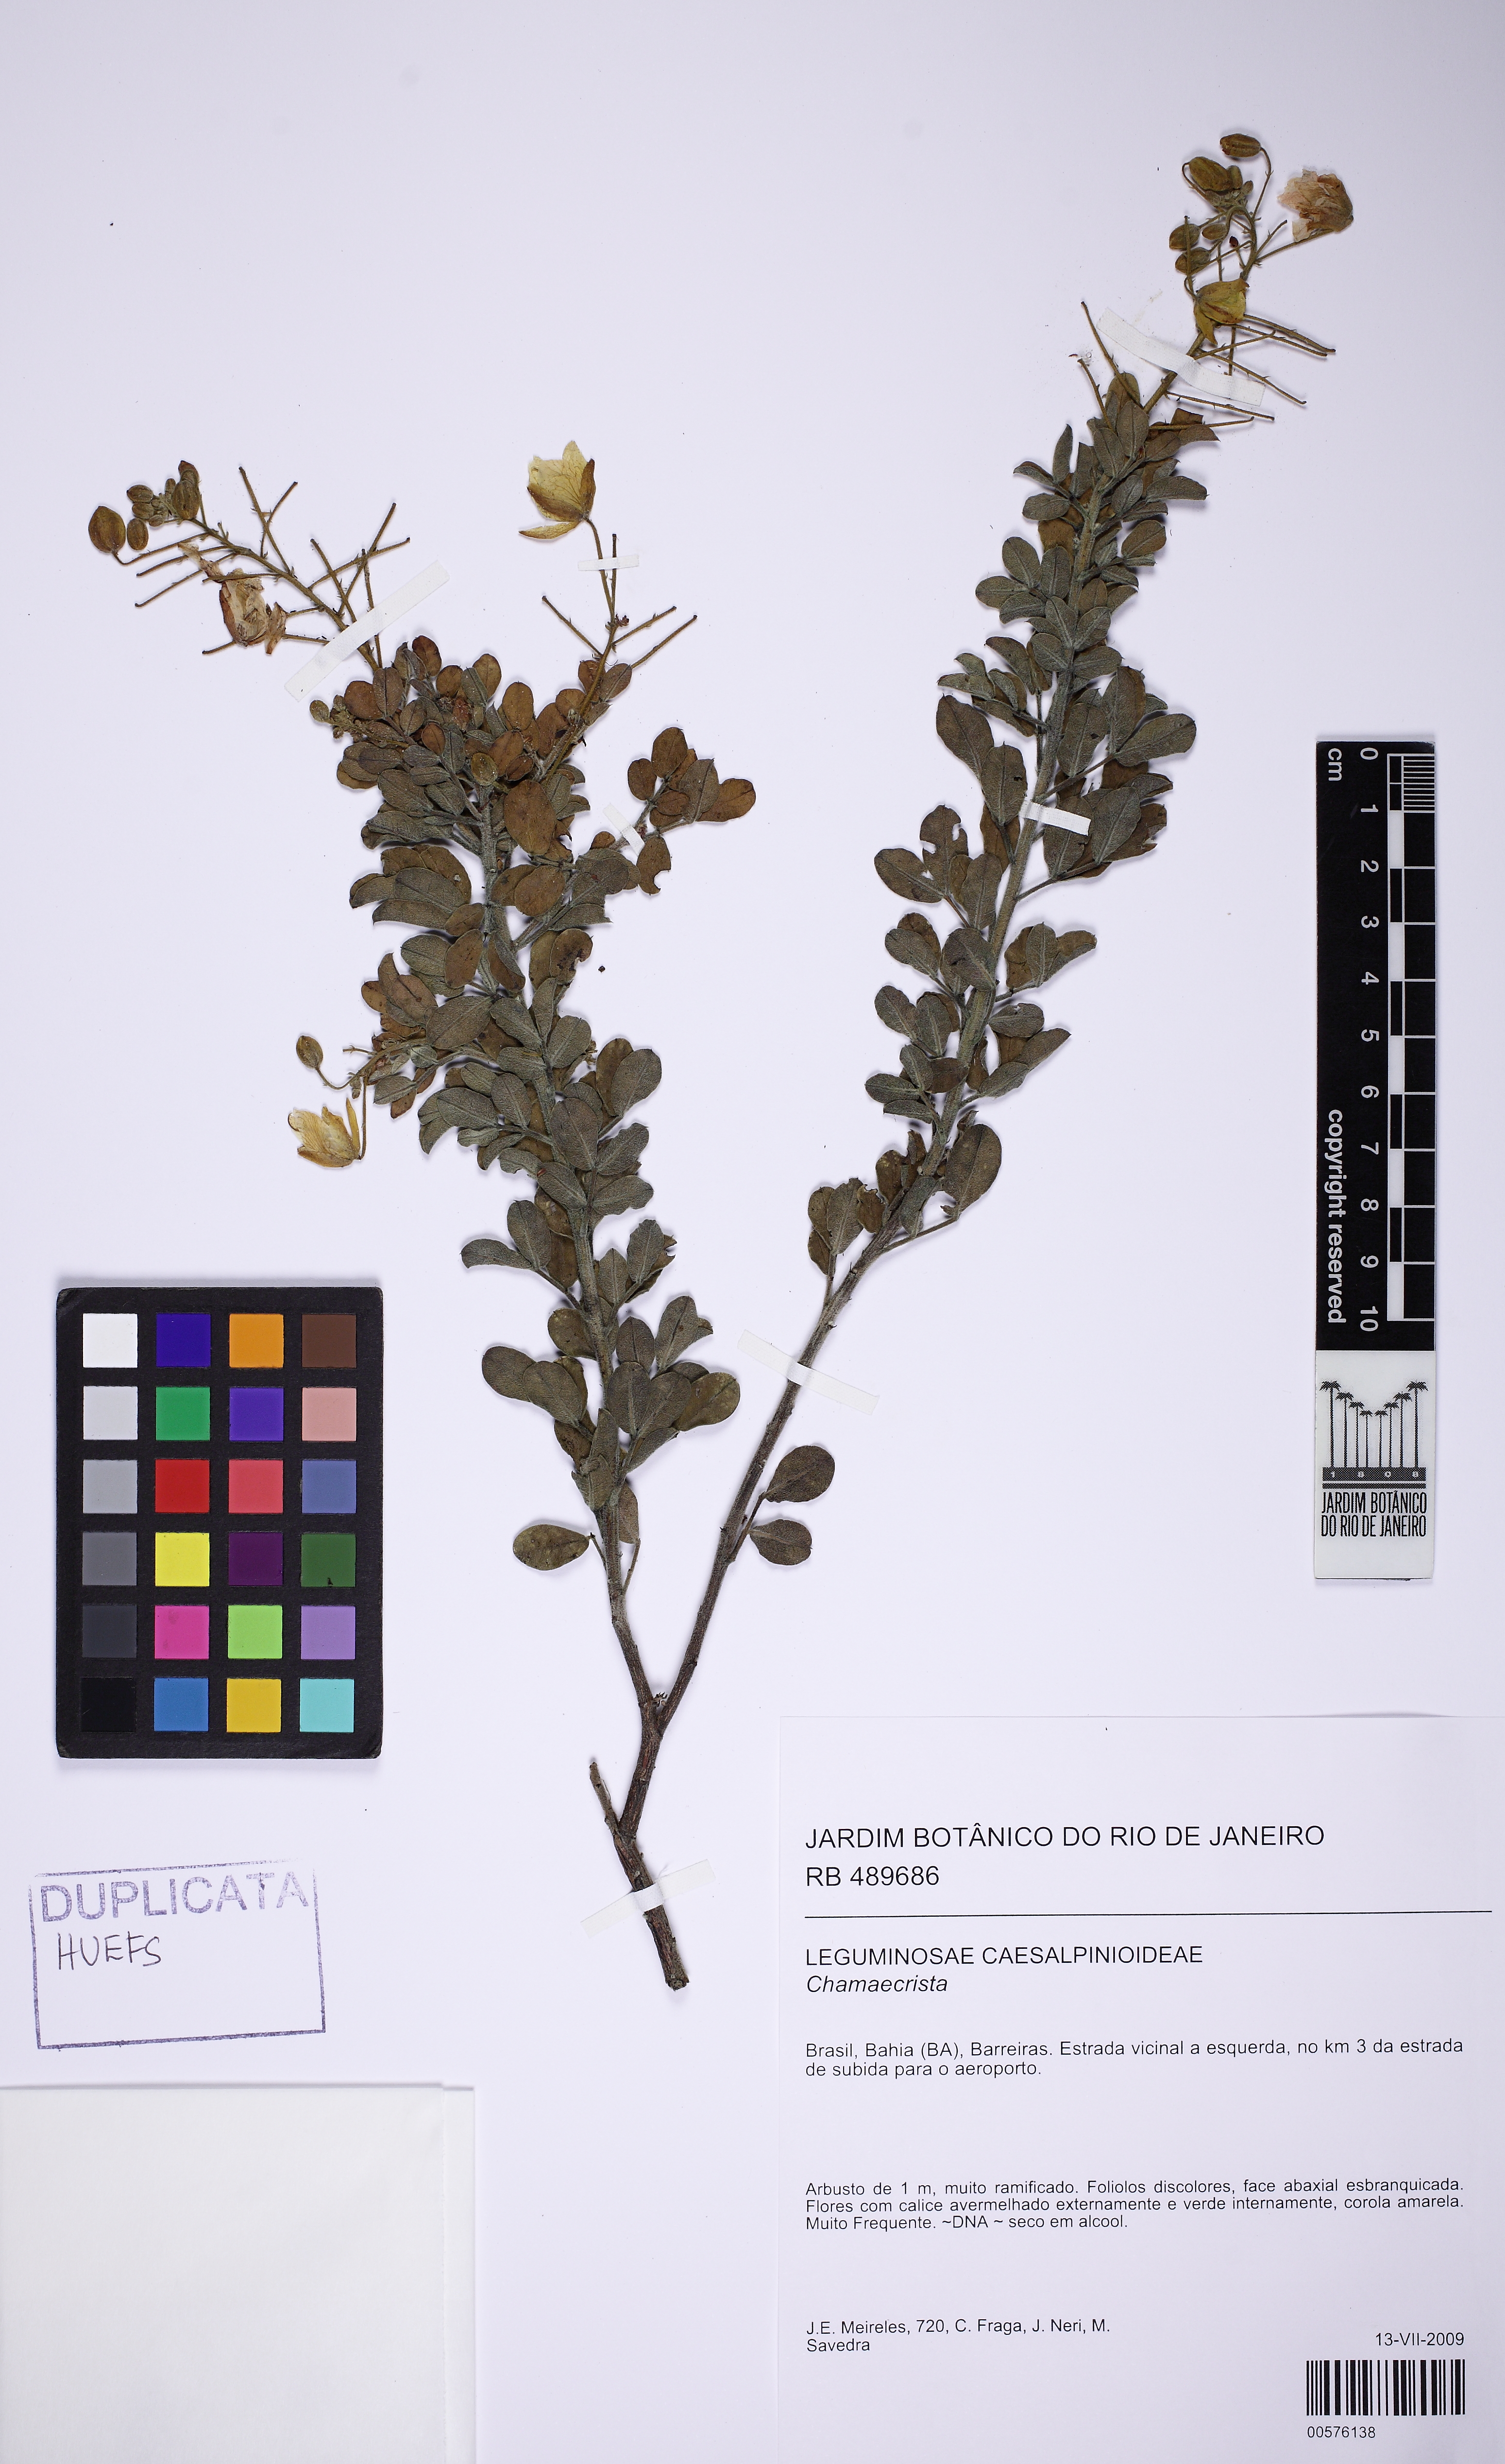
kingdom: Plantae
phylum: Tracheophyta
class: Magnoliopsida
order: Fabales
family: Fabaceae
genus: Chamaecrista
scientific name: Chamaecrista
